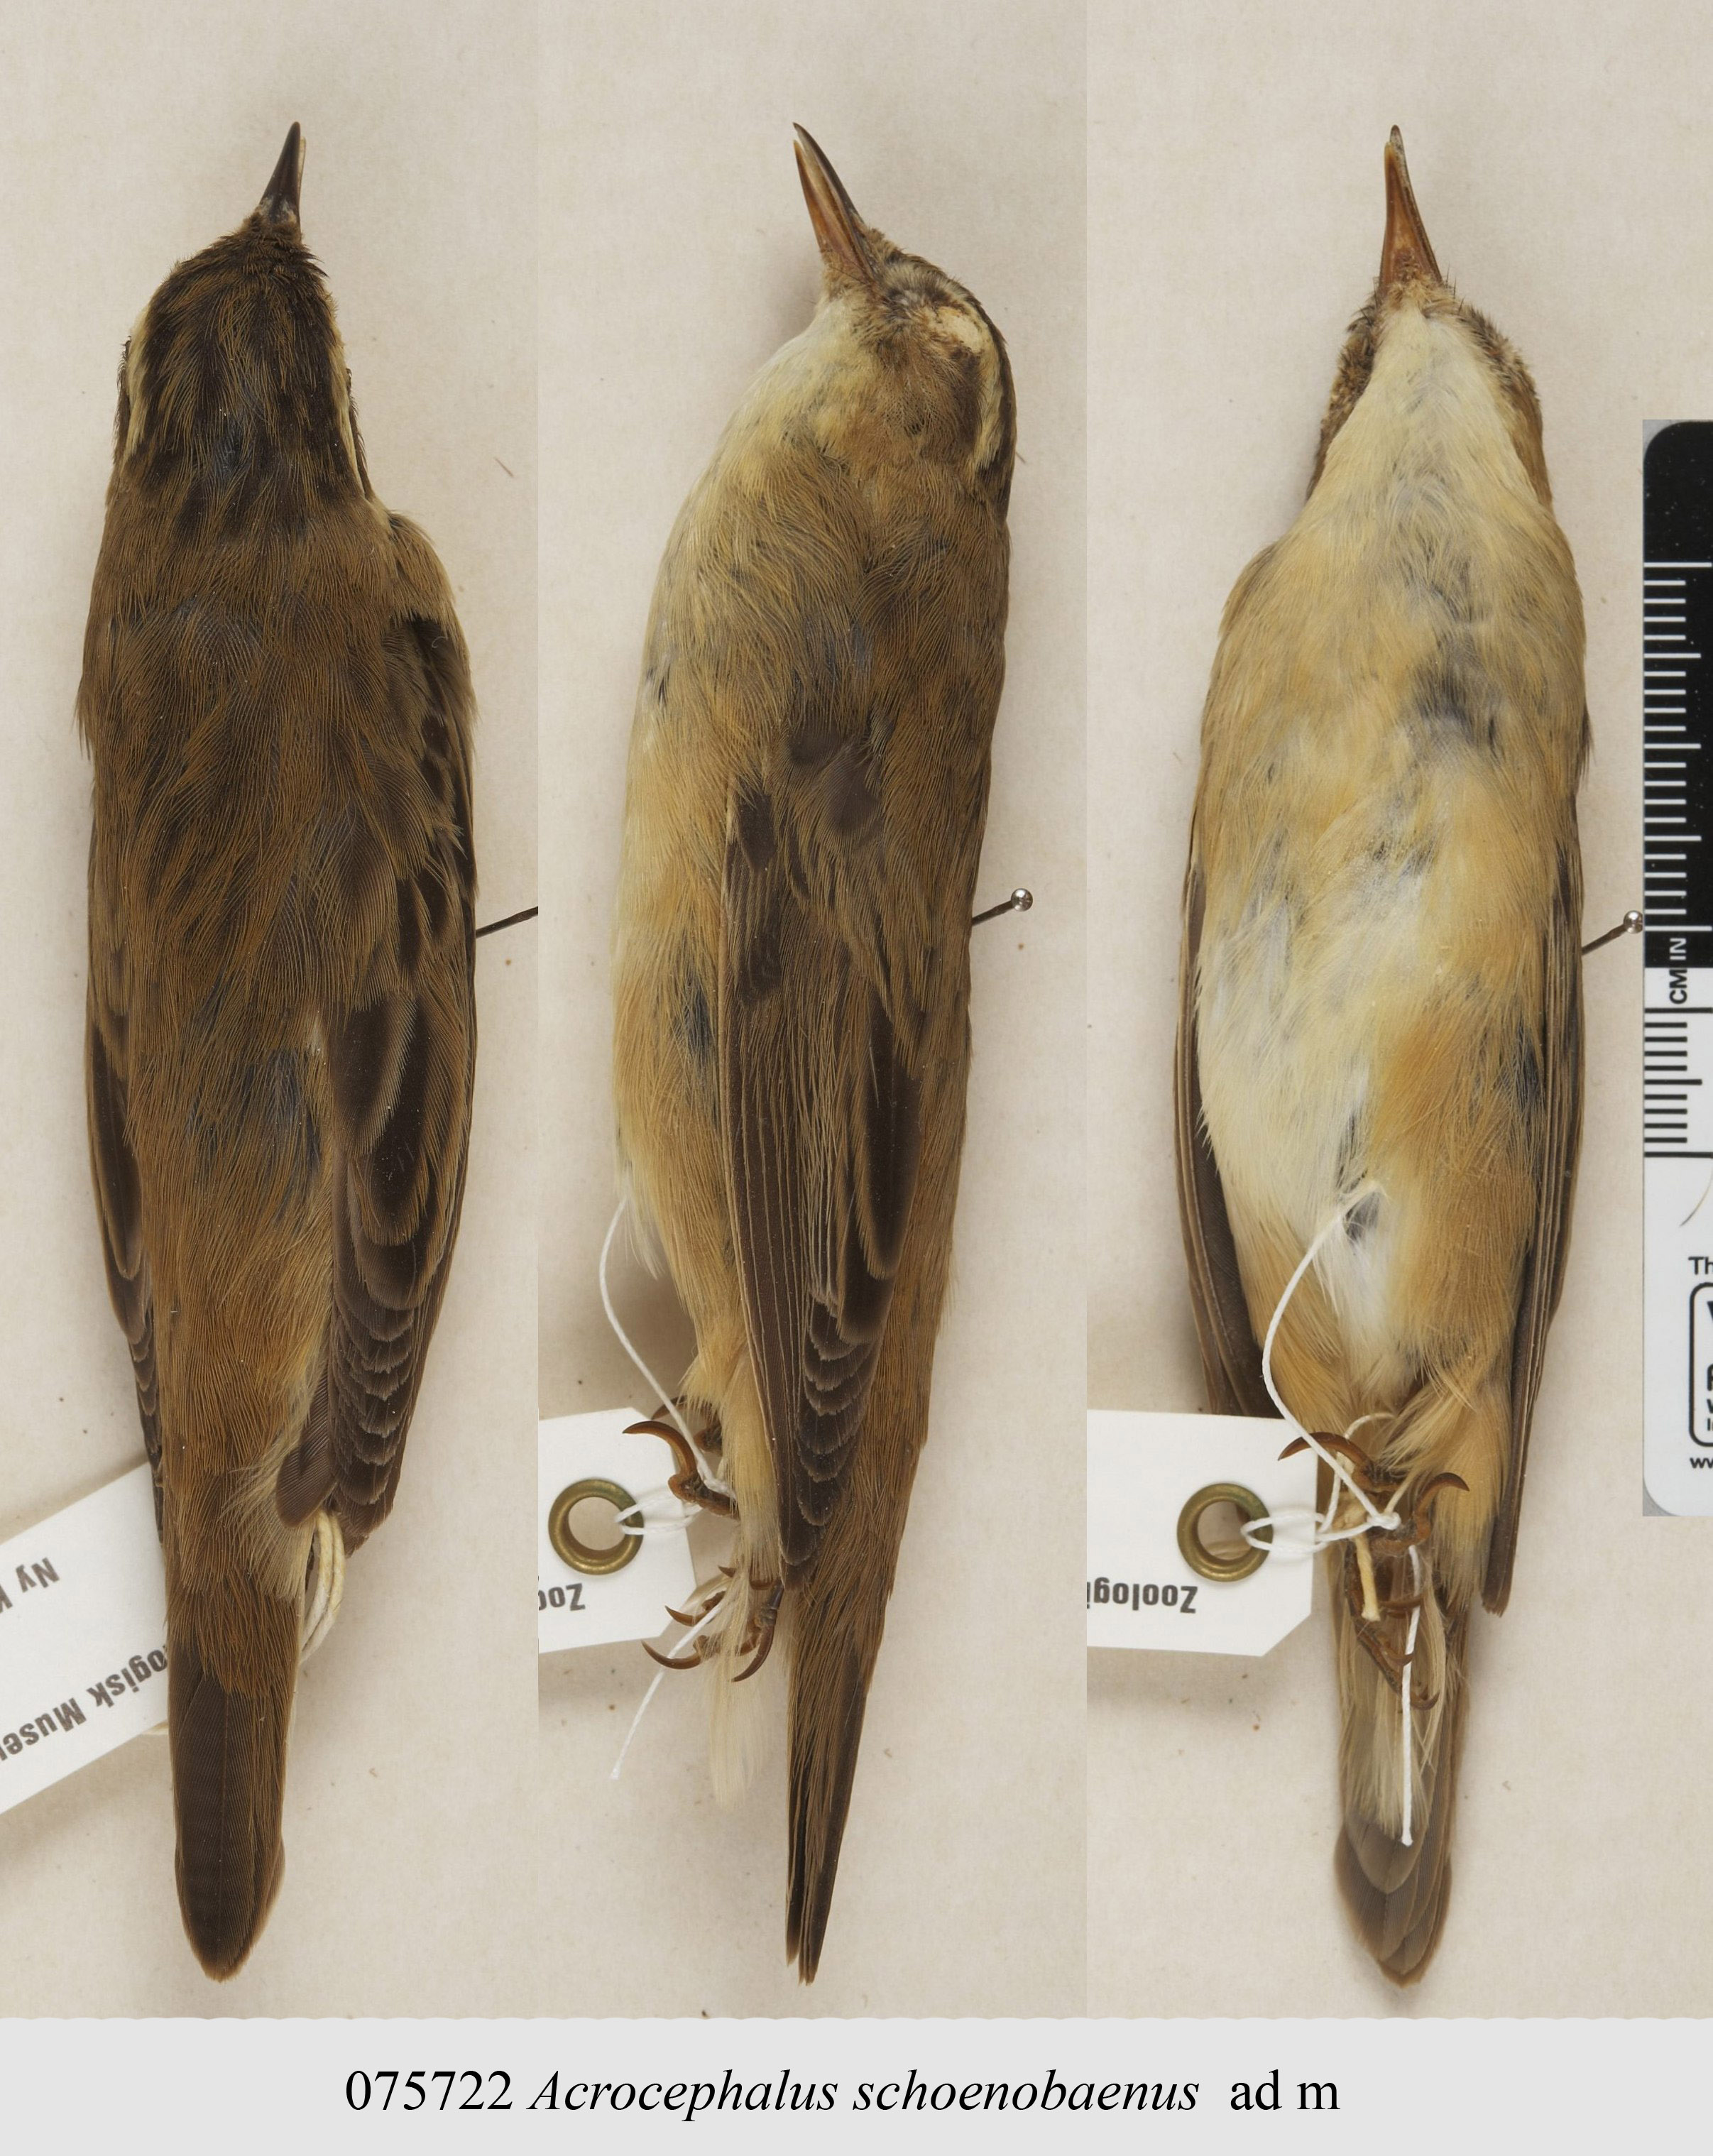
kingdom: Animalia
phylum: Chordata
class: Aves
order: Passeriformes
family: Acrocephalidae
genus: Acrocephalus
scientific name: Acrocephalus schoenobaenus
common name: Sedge warbler
